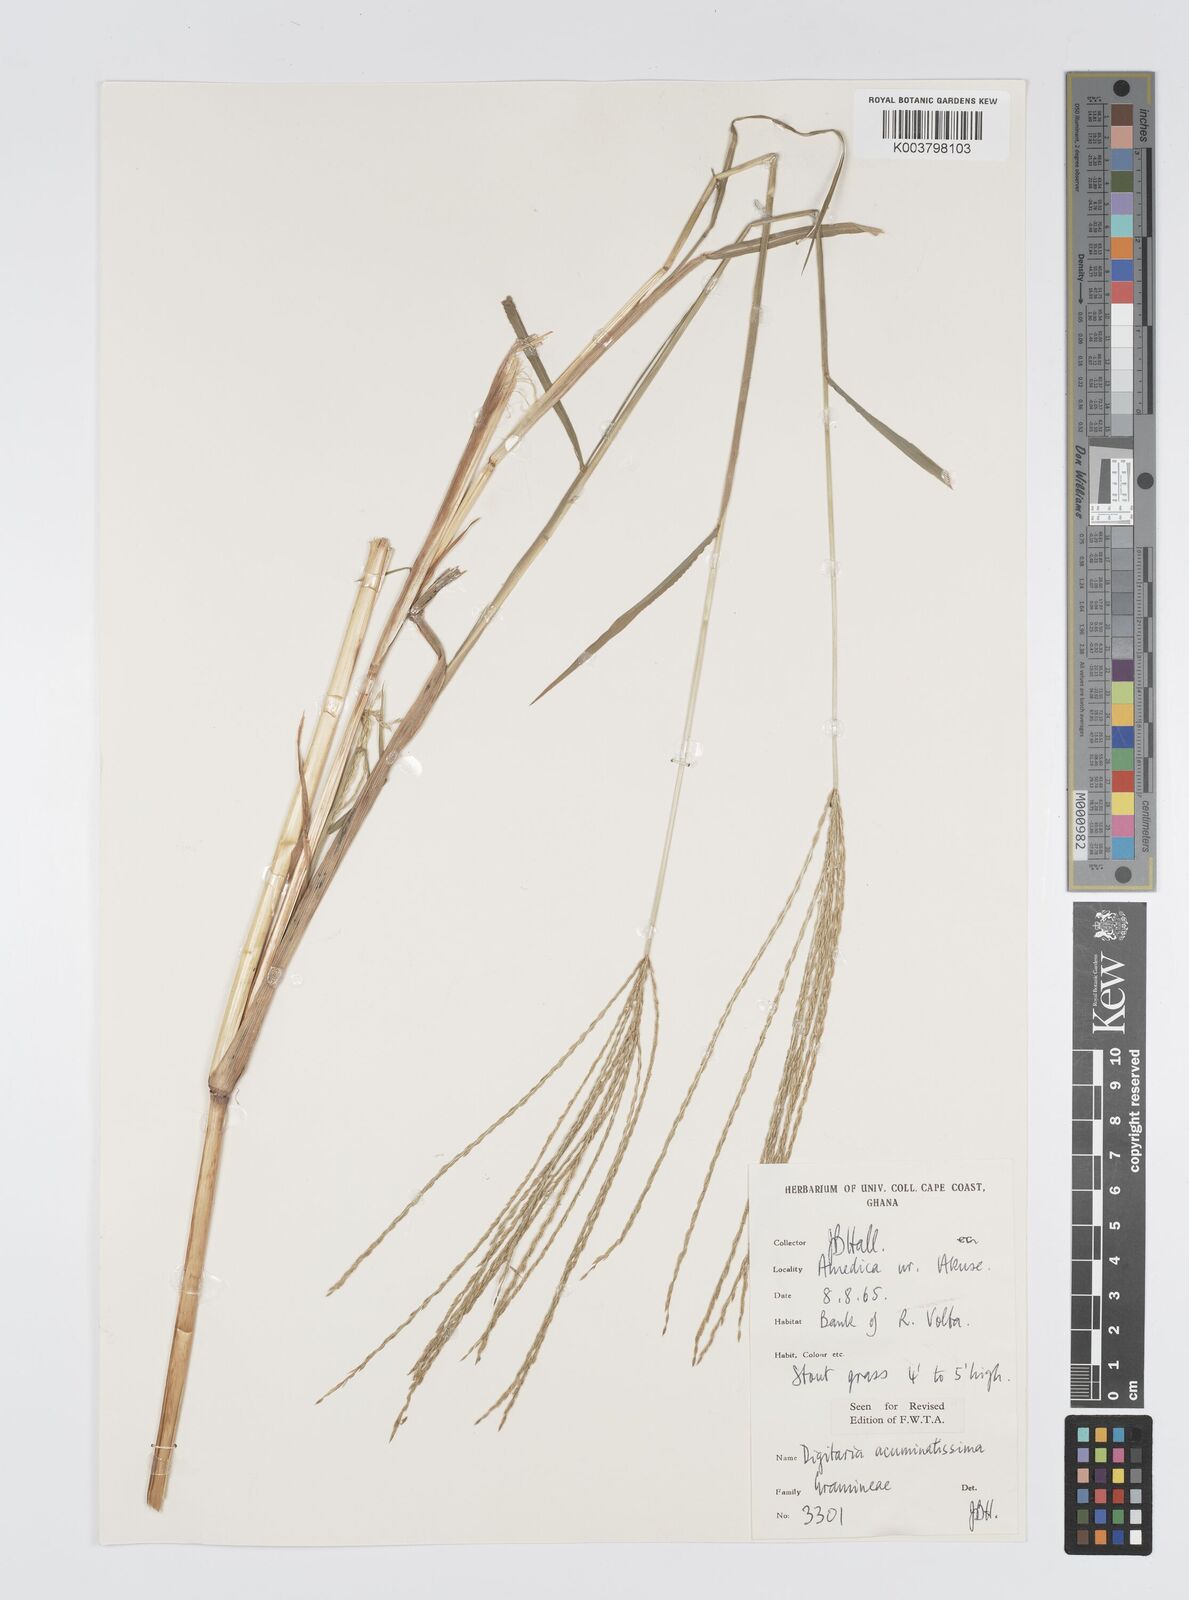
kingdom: Plantae
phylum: Tracheophyta
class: Liliopsida
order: Poales
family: Poaceae
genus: Digitaria
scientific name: Digitaria
